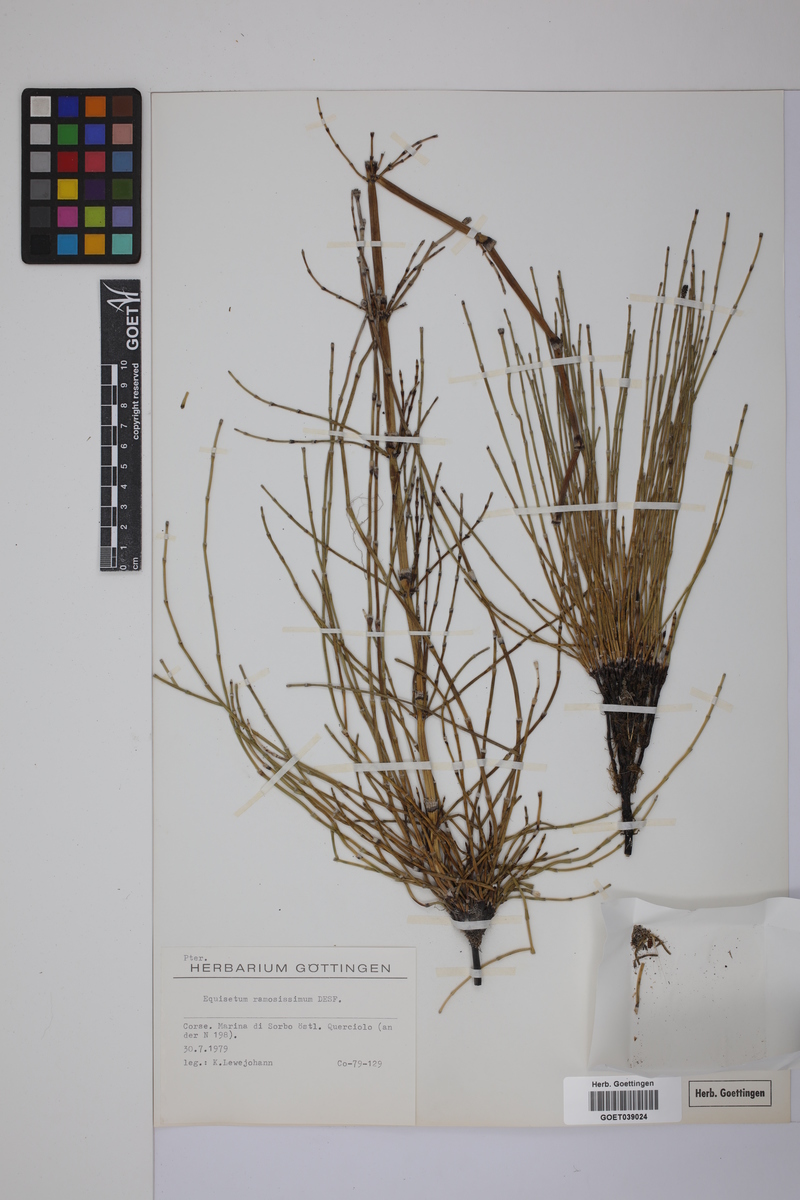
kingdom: Plantae
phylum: Tracheophyta
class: Polypodiopsida
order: Equisetales
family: Equisetaceae
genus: Equisetum
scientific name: Equisetum giganteum
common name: Giant horsetail
